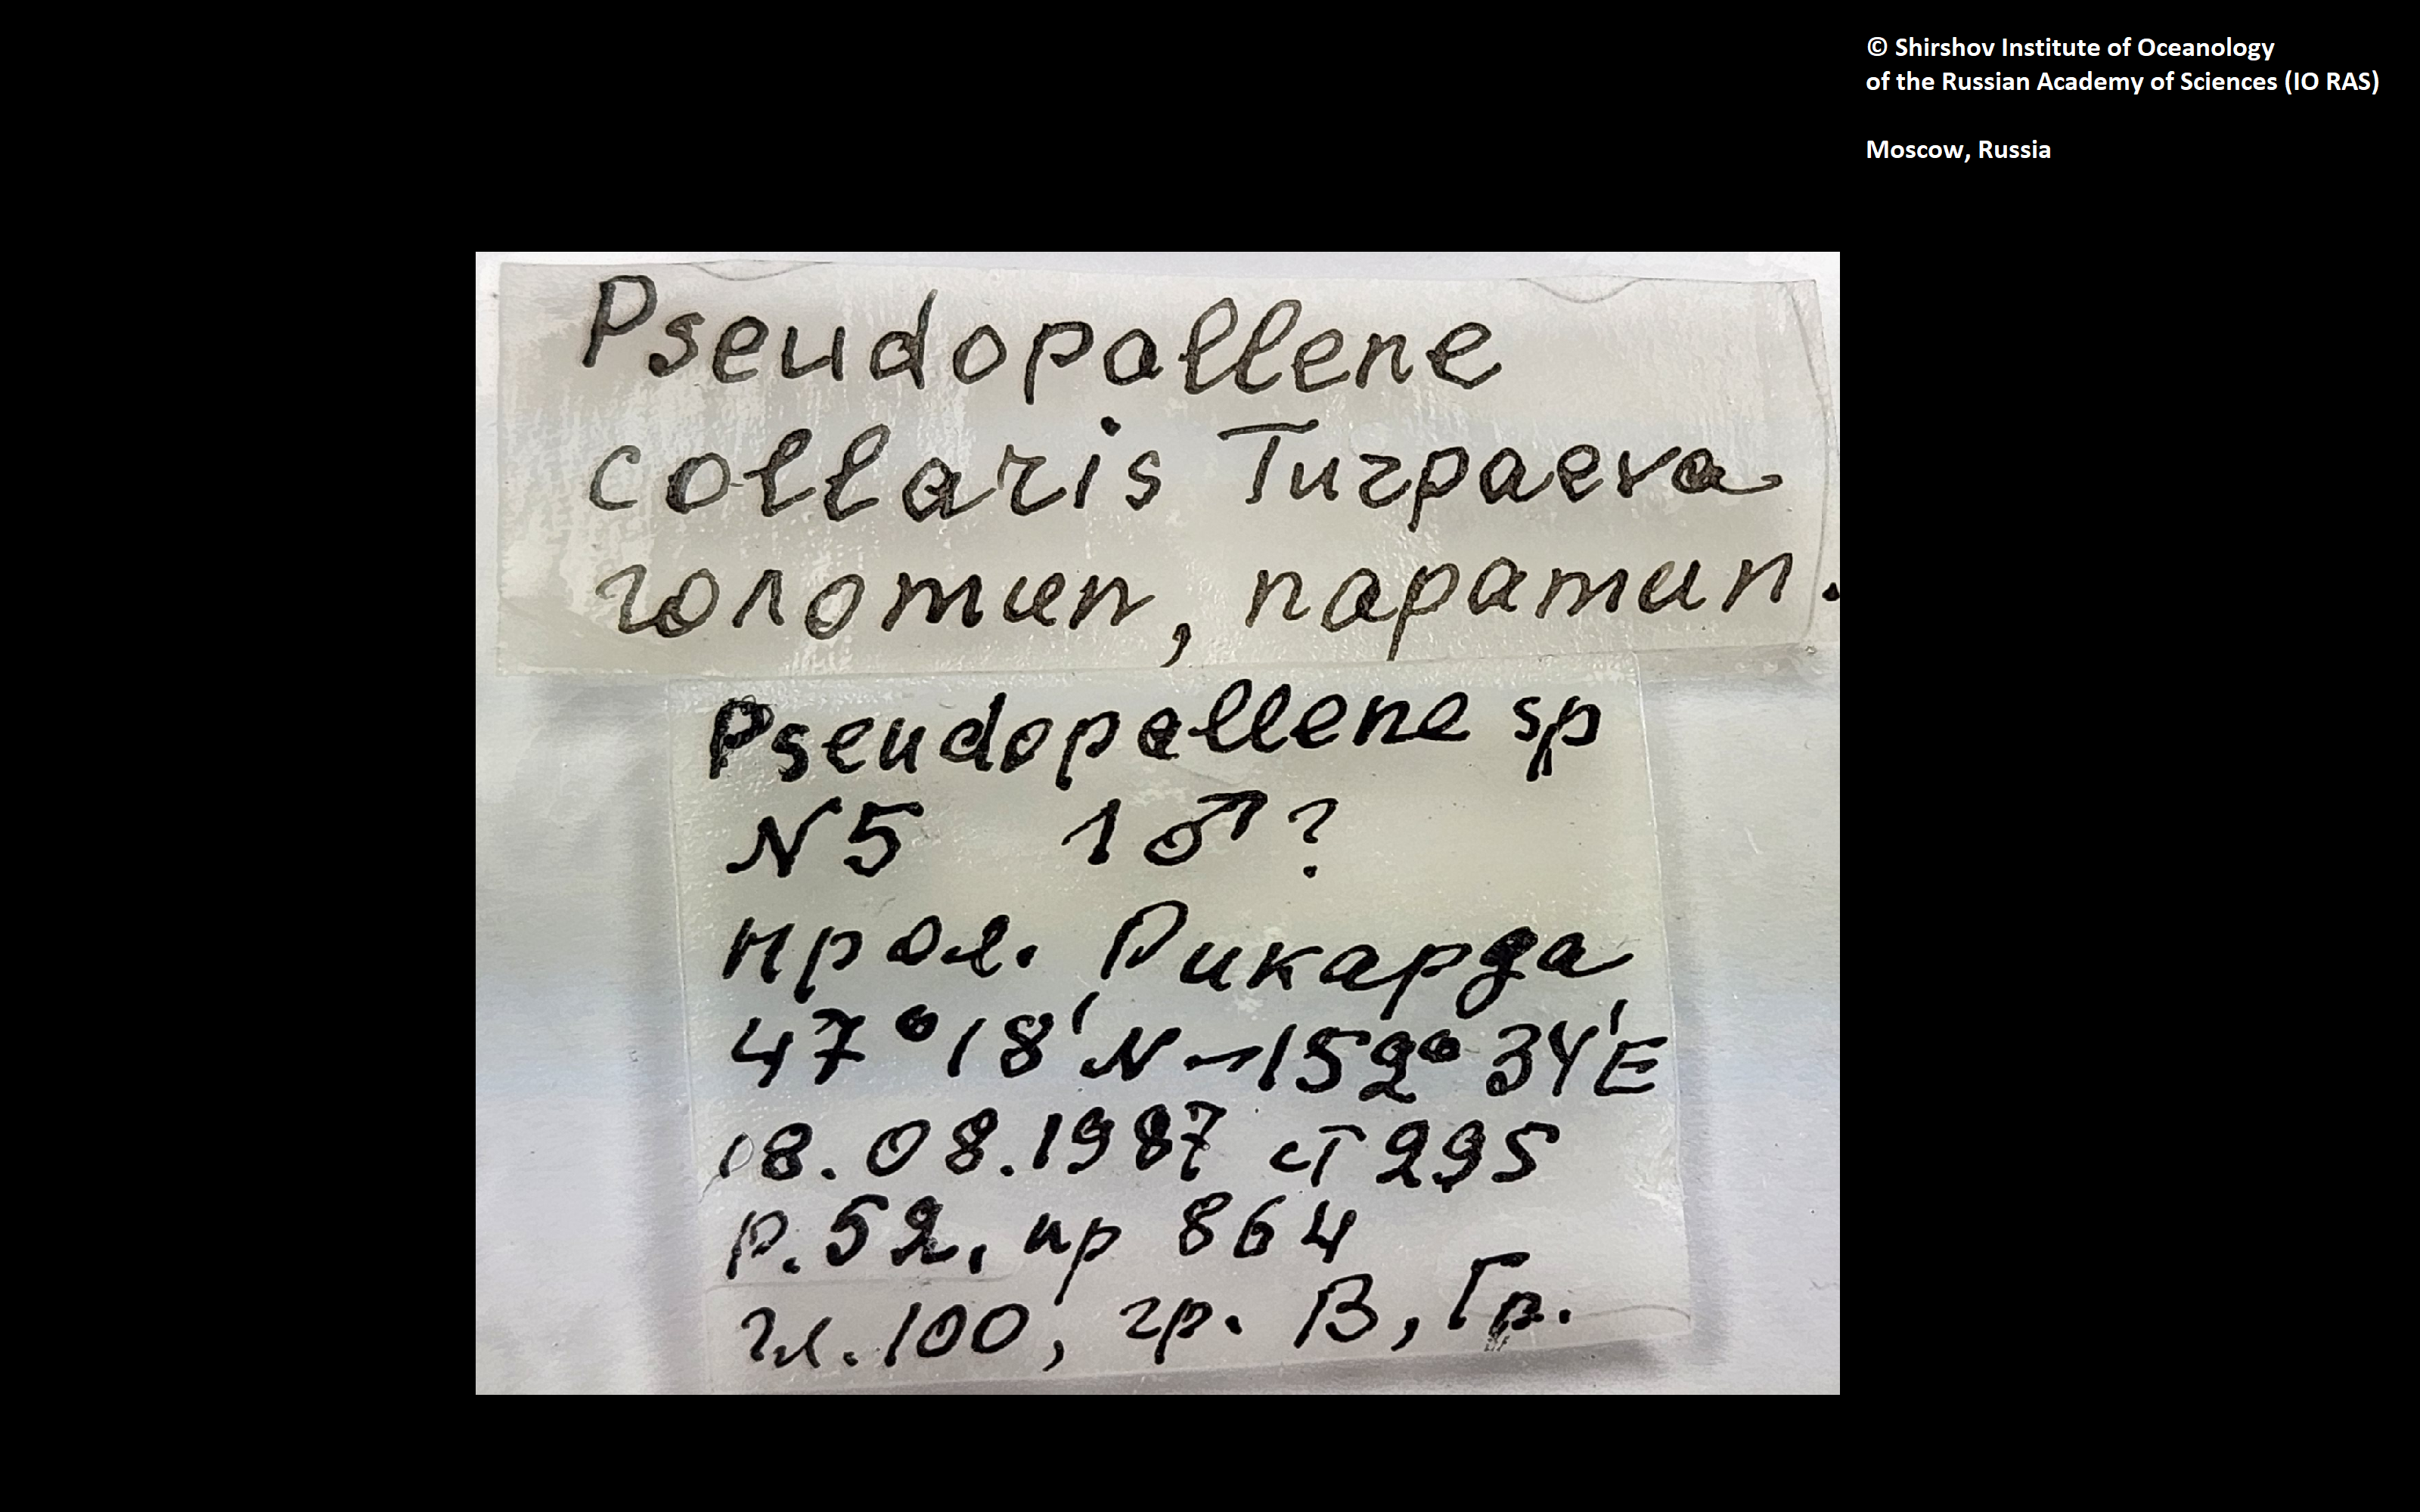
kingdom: Animalia
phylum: Arthropoda
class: Pycnogonida
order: Pantopoda
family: Callipallenidae
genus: Pseudopallene
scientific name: Pseudopallene collaris
